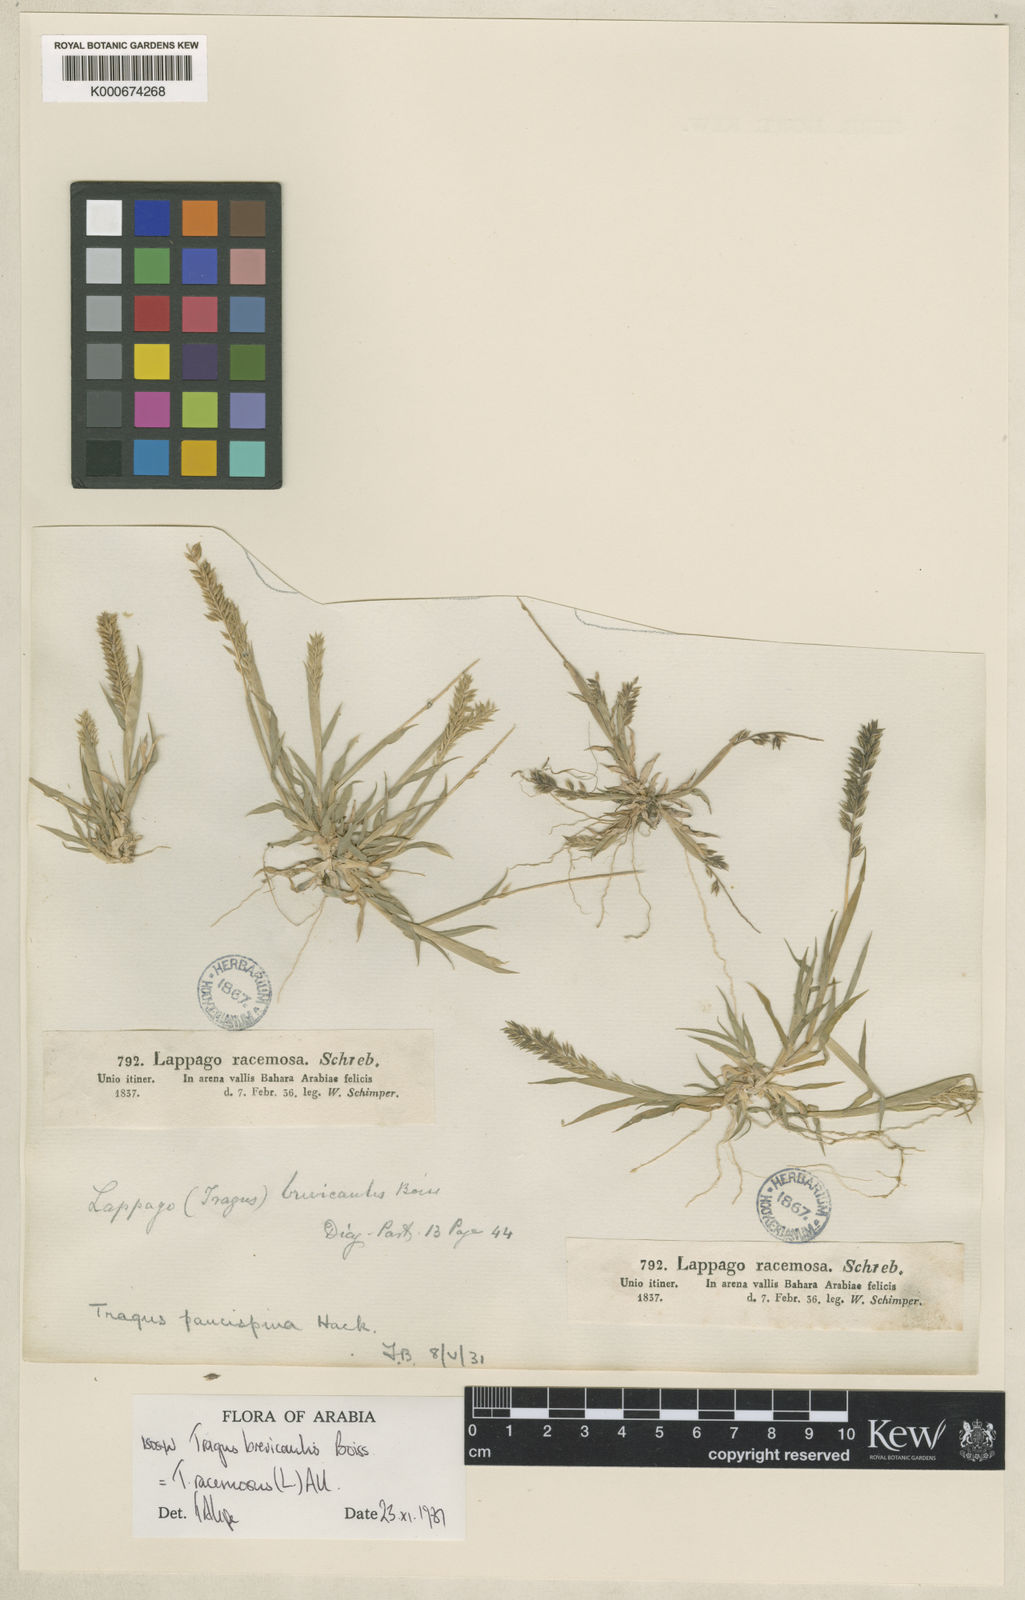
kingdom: Plantae
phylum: Tracheophyta
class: Liliopsida
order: Poales
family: Poaceae
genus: Tragus
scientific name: Tragus racemosus
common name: European bur-grass
